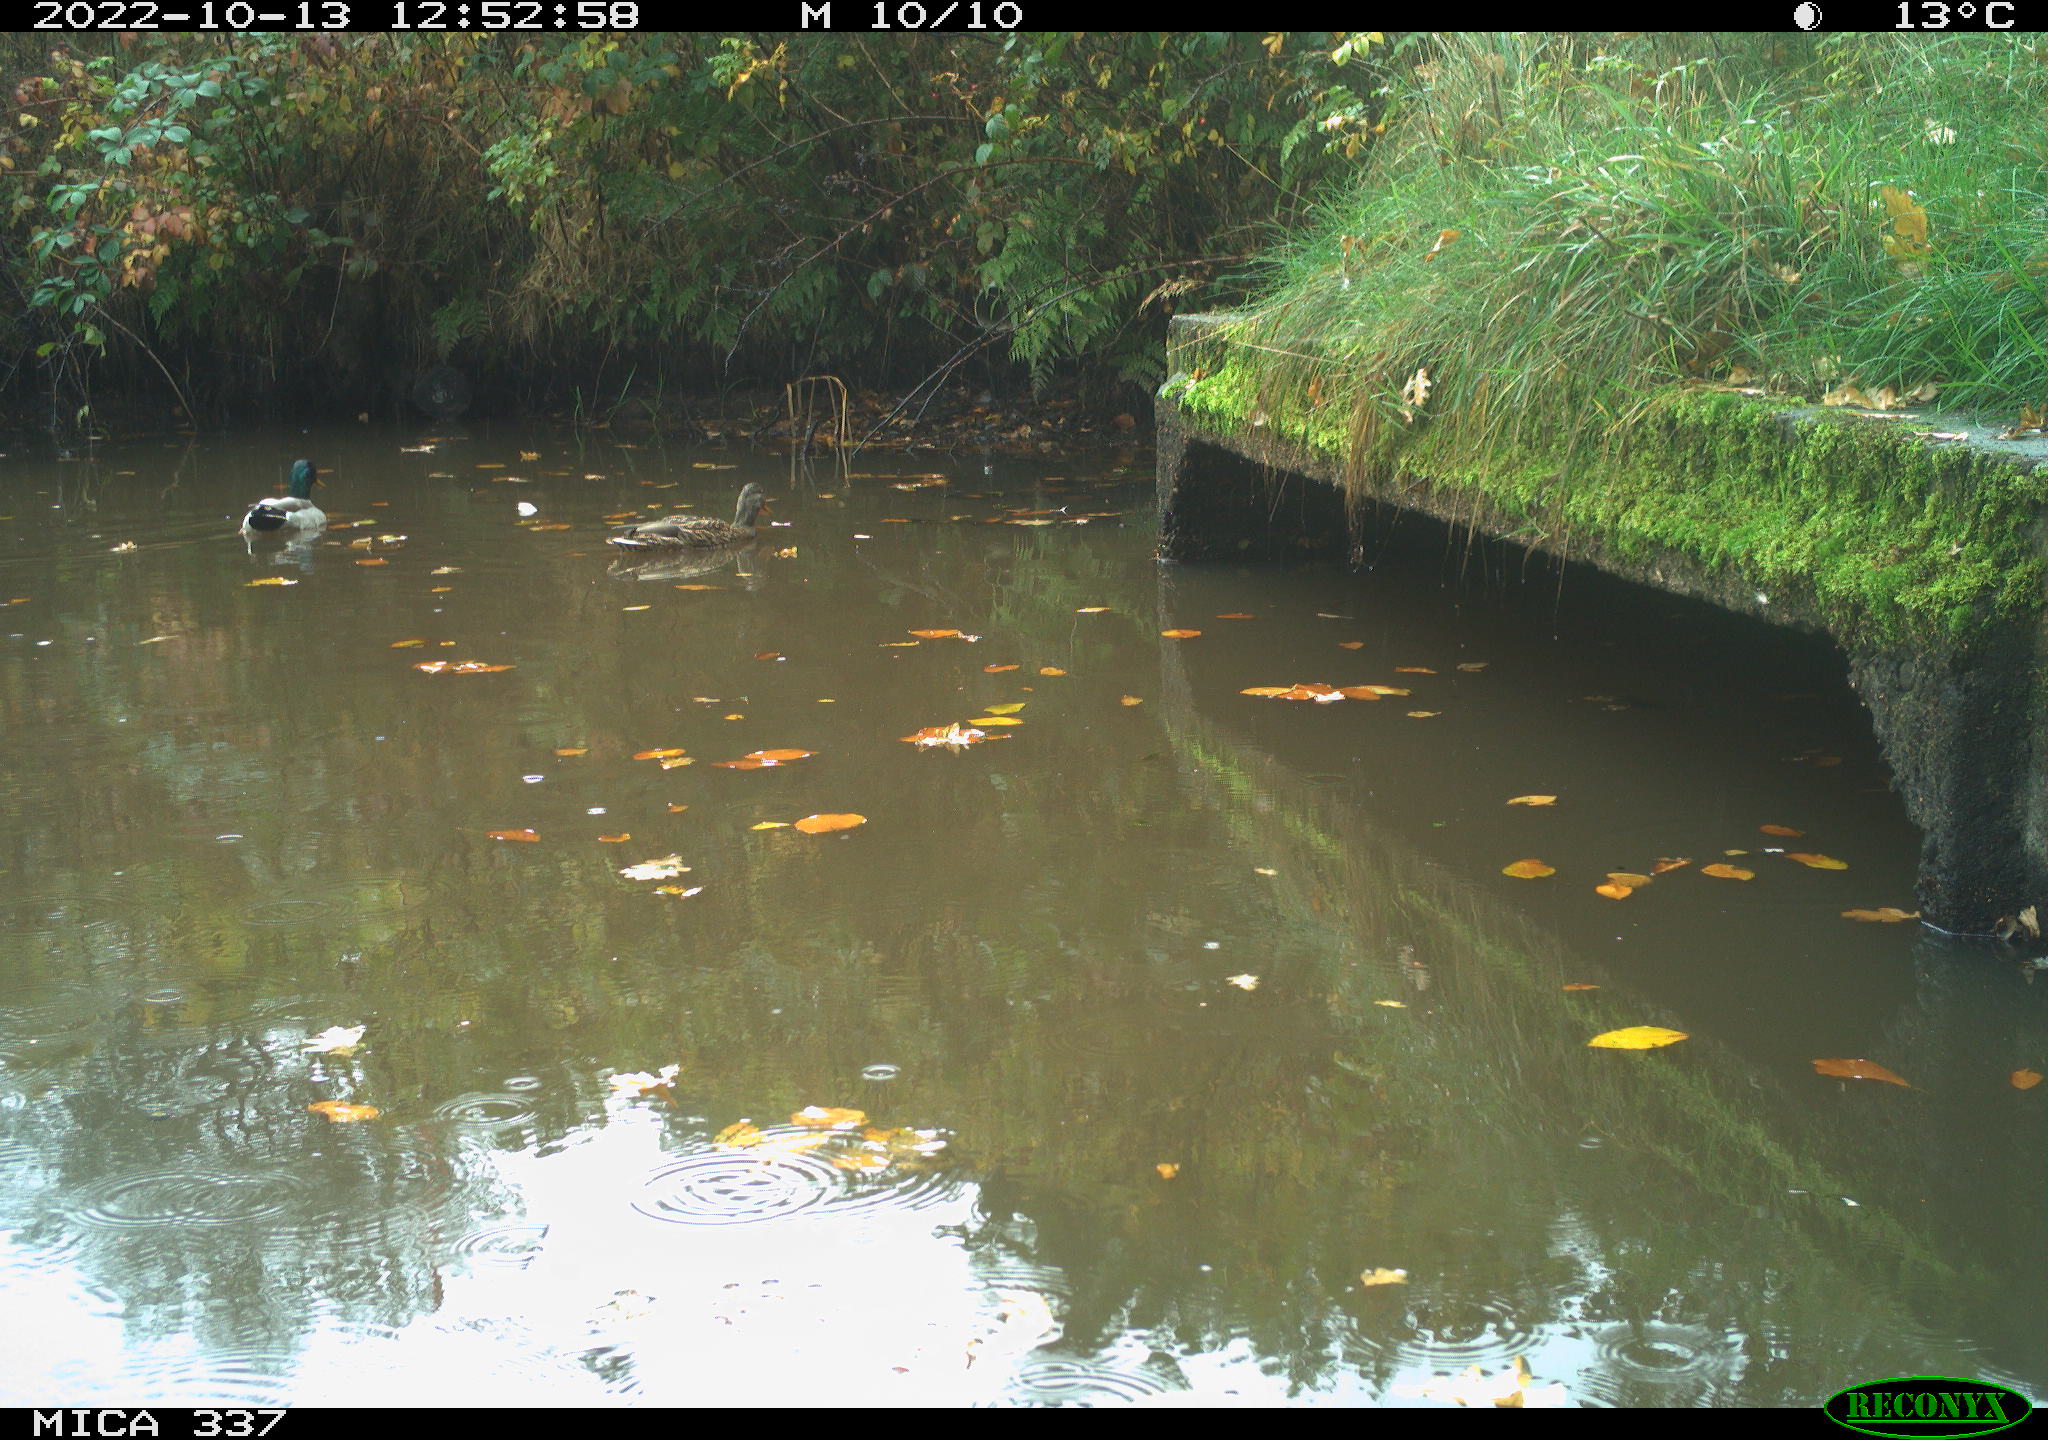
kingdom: Animalia
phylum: Chordata
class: Aves
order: Anseriformes
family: Anatidae
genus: Anas
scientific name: Anas platyrhynchos
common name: Mallard
